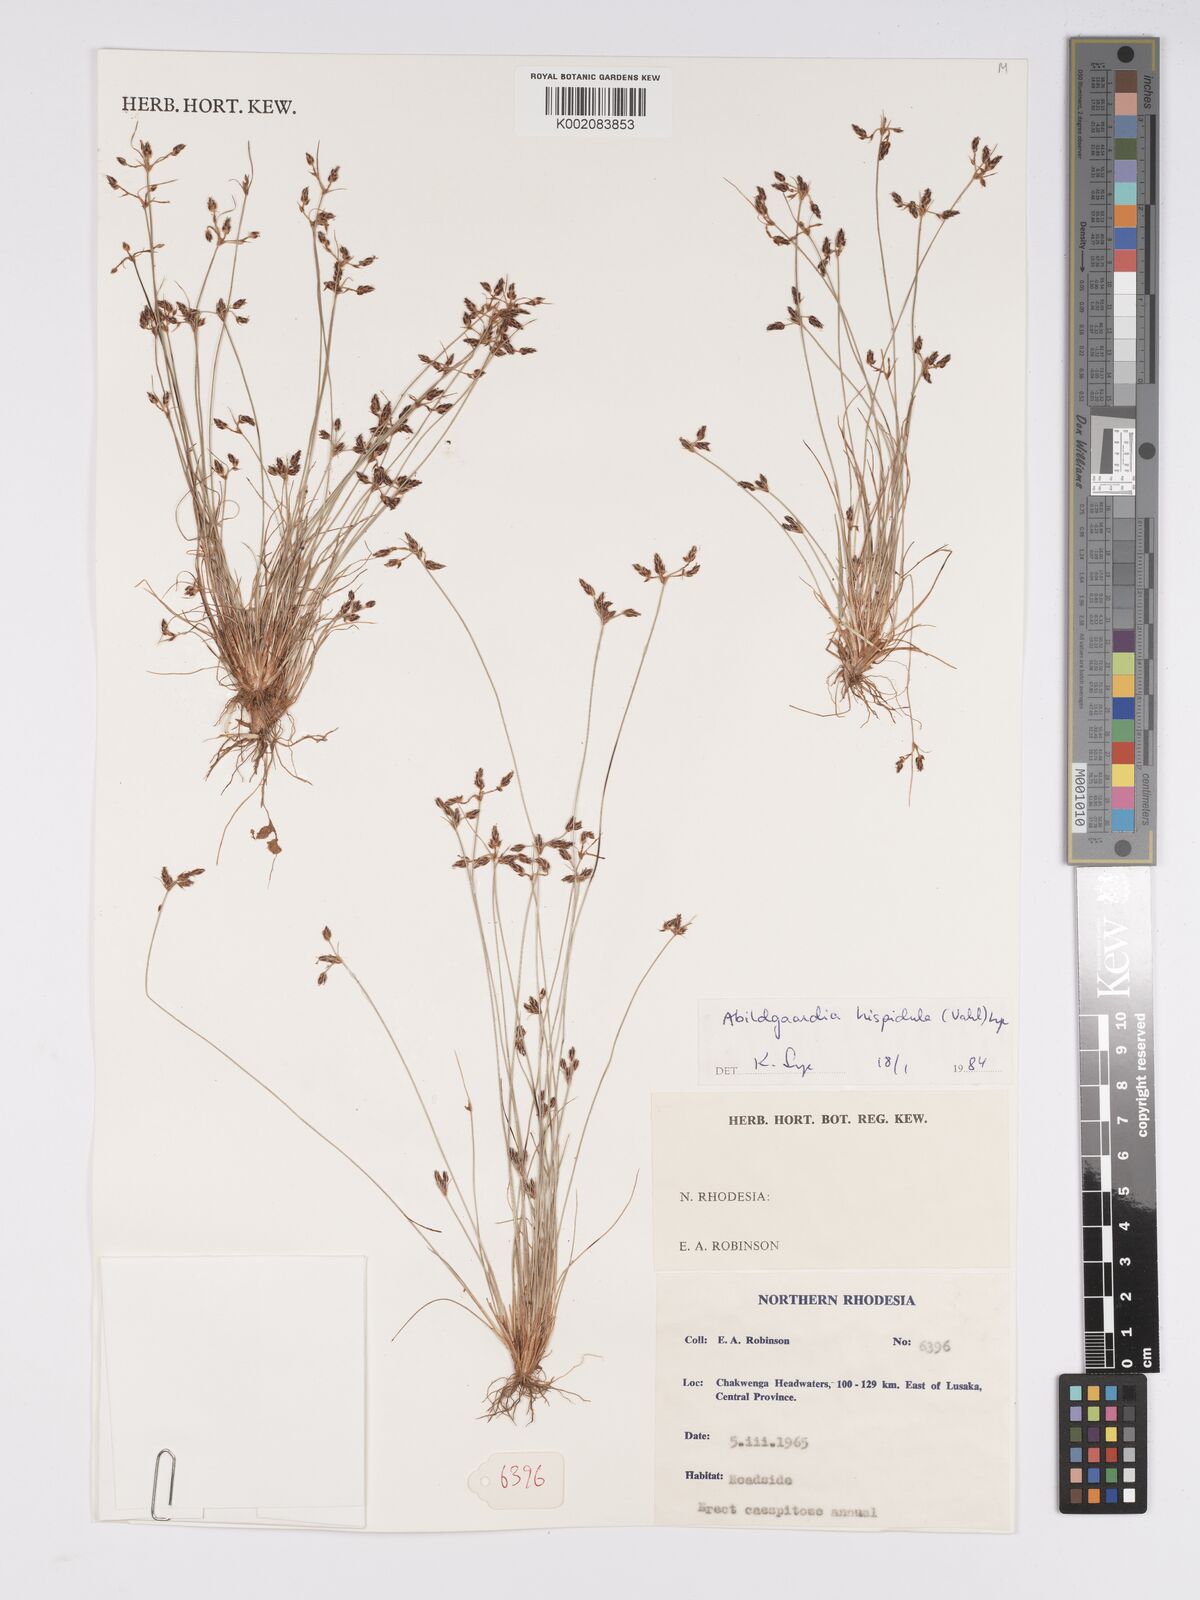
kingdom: Plantae
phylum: Tracheophyta
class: Liliopsida
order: Poales
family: Cyperaceae
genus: Bulbostylis
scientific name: Bulbostylis hispidula
